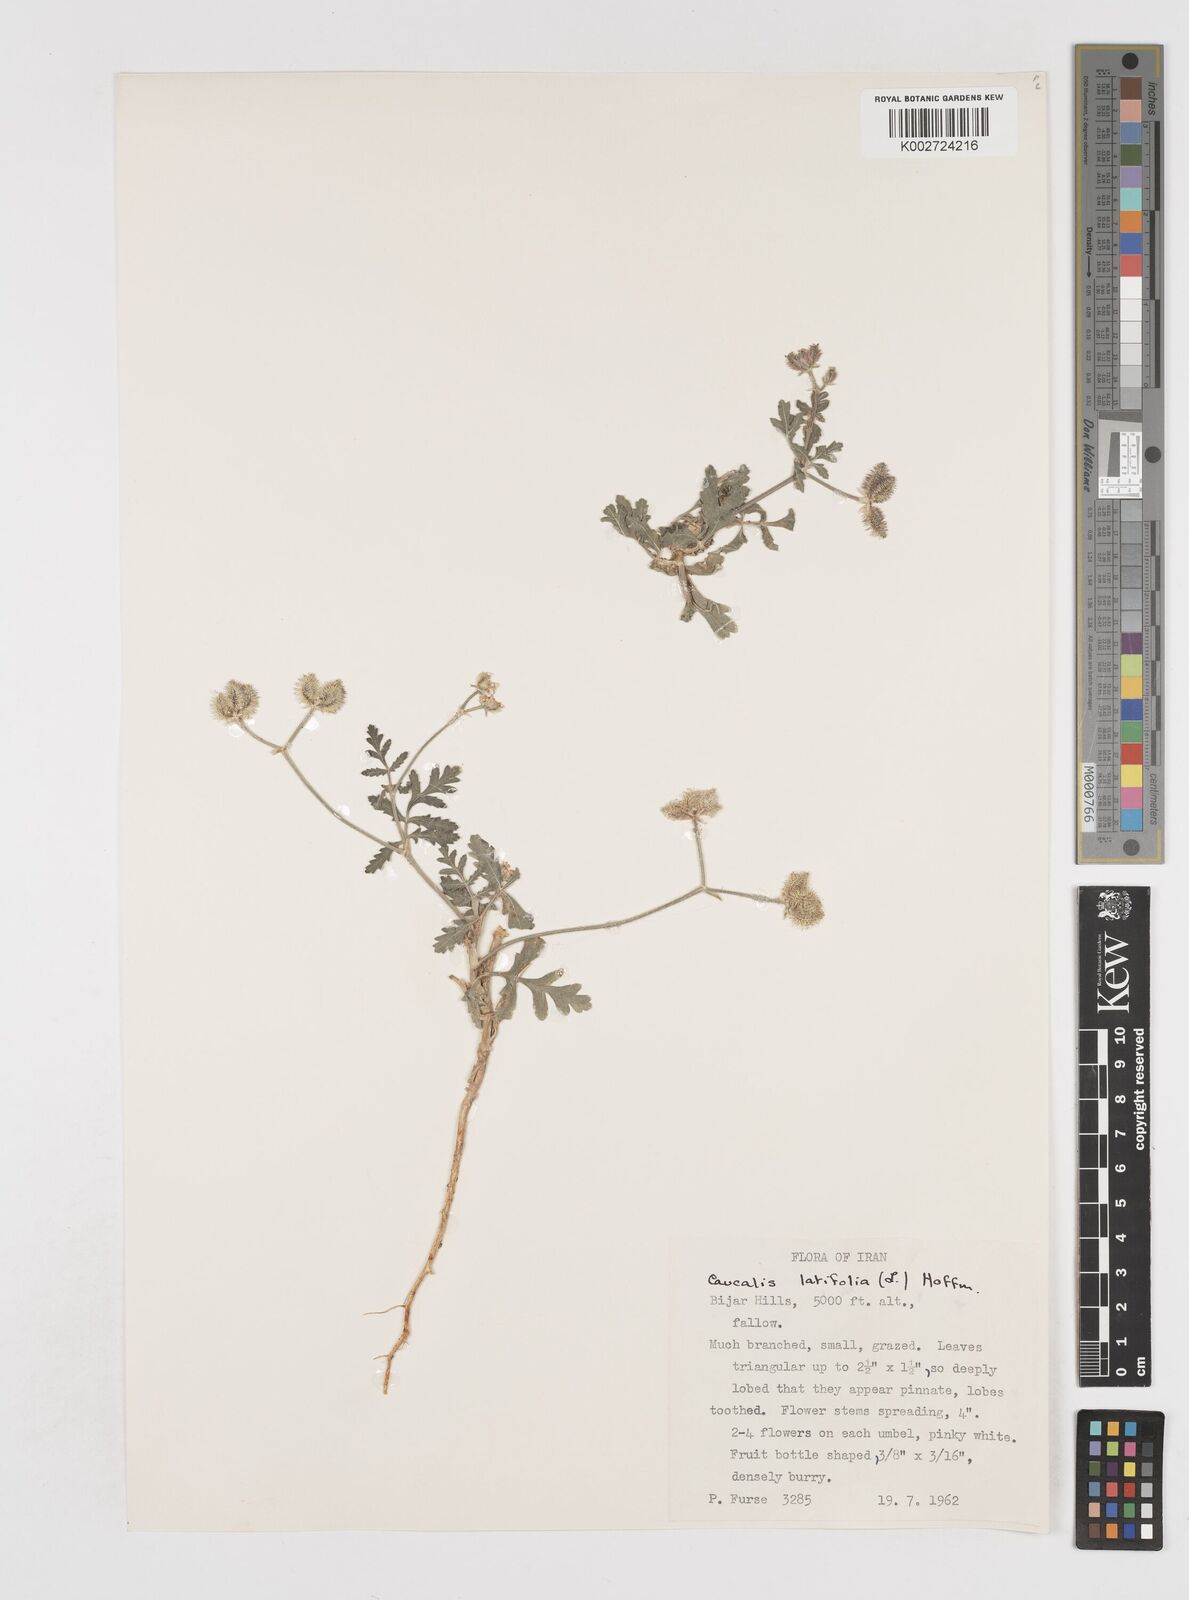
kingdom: Plantae
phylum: Tracheophyta
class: Magnoliopsida
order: Apiales
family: Apiaceae
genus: Turgenia
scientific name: Turgenia latifolia
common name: Greater bur-parsley
